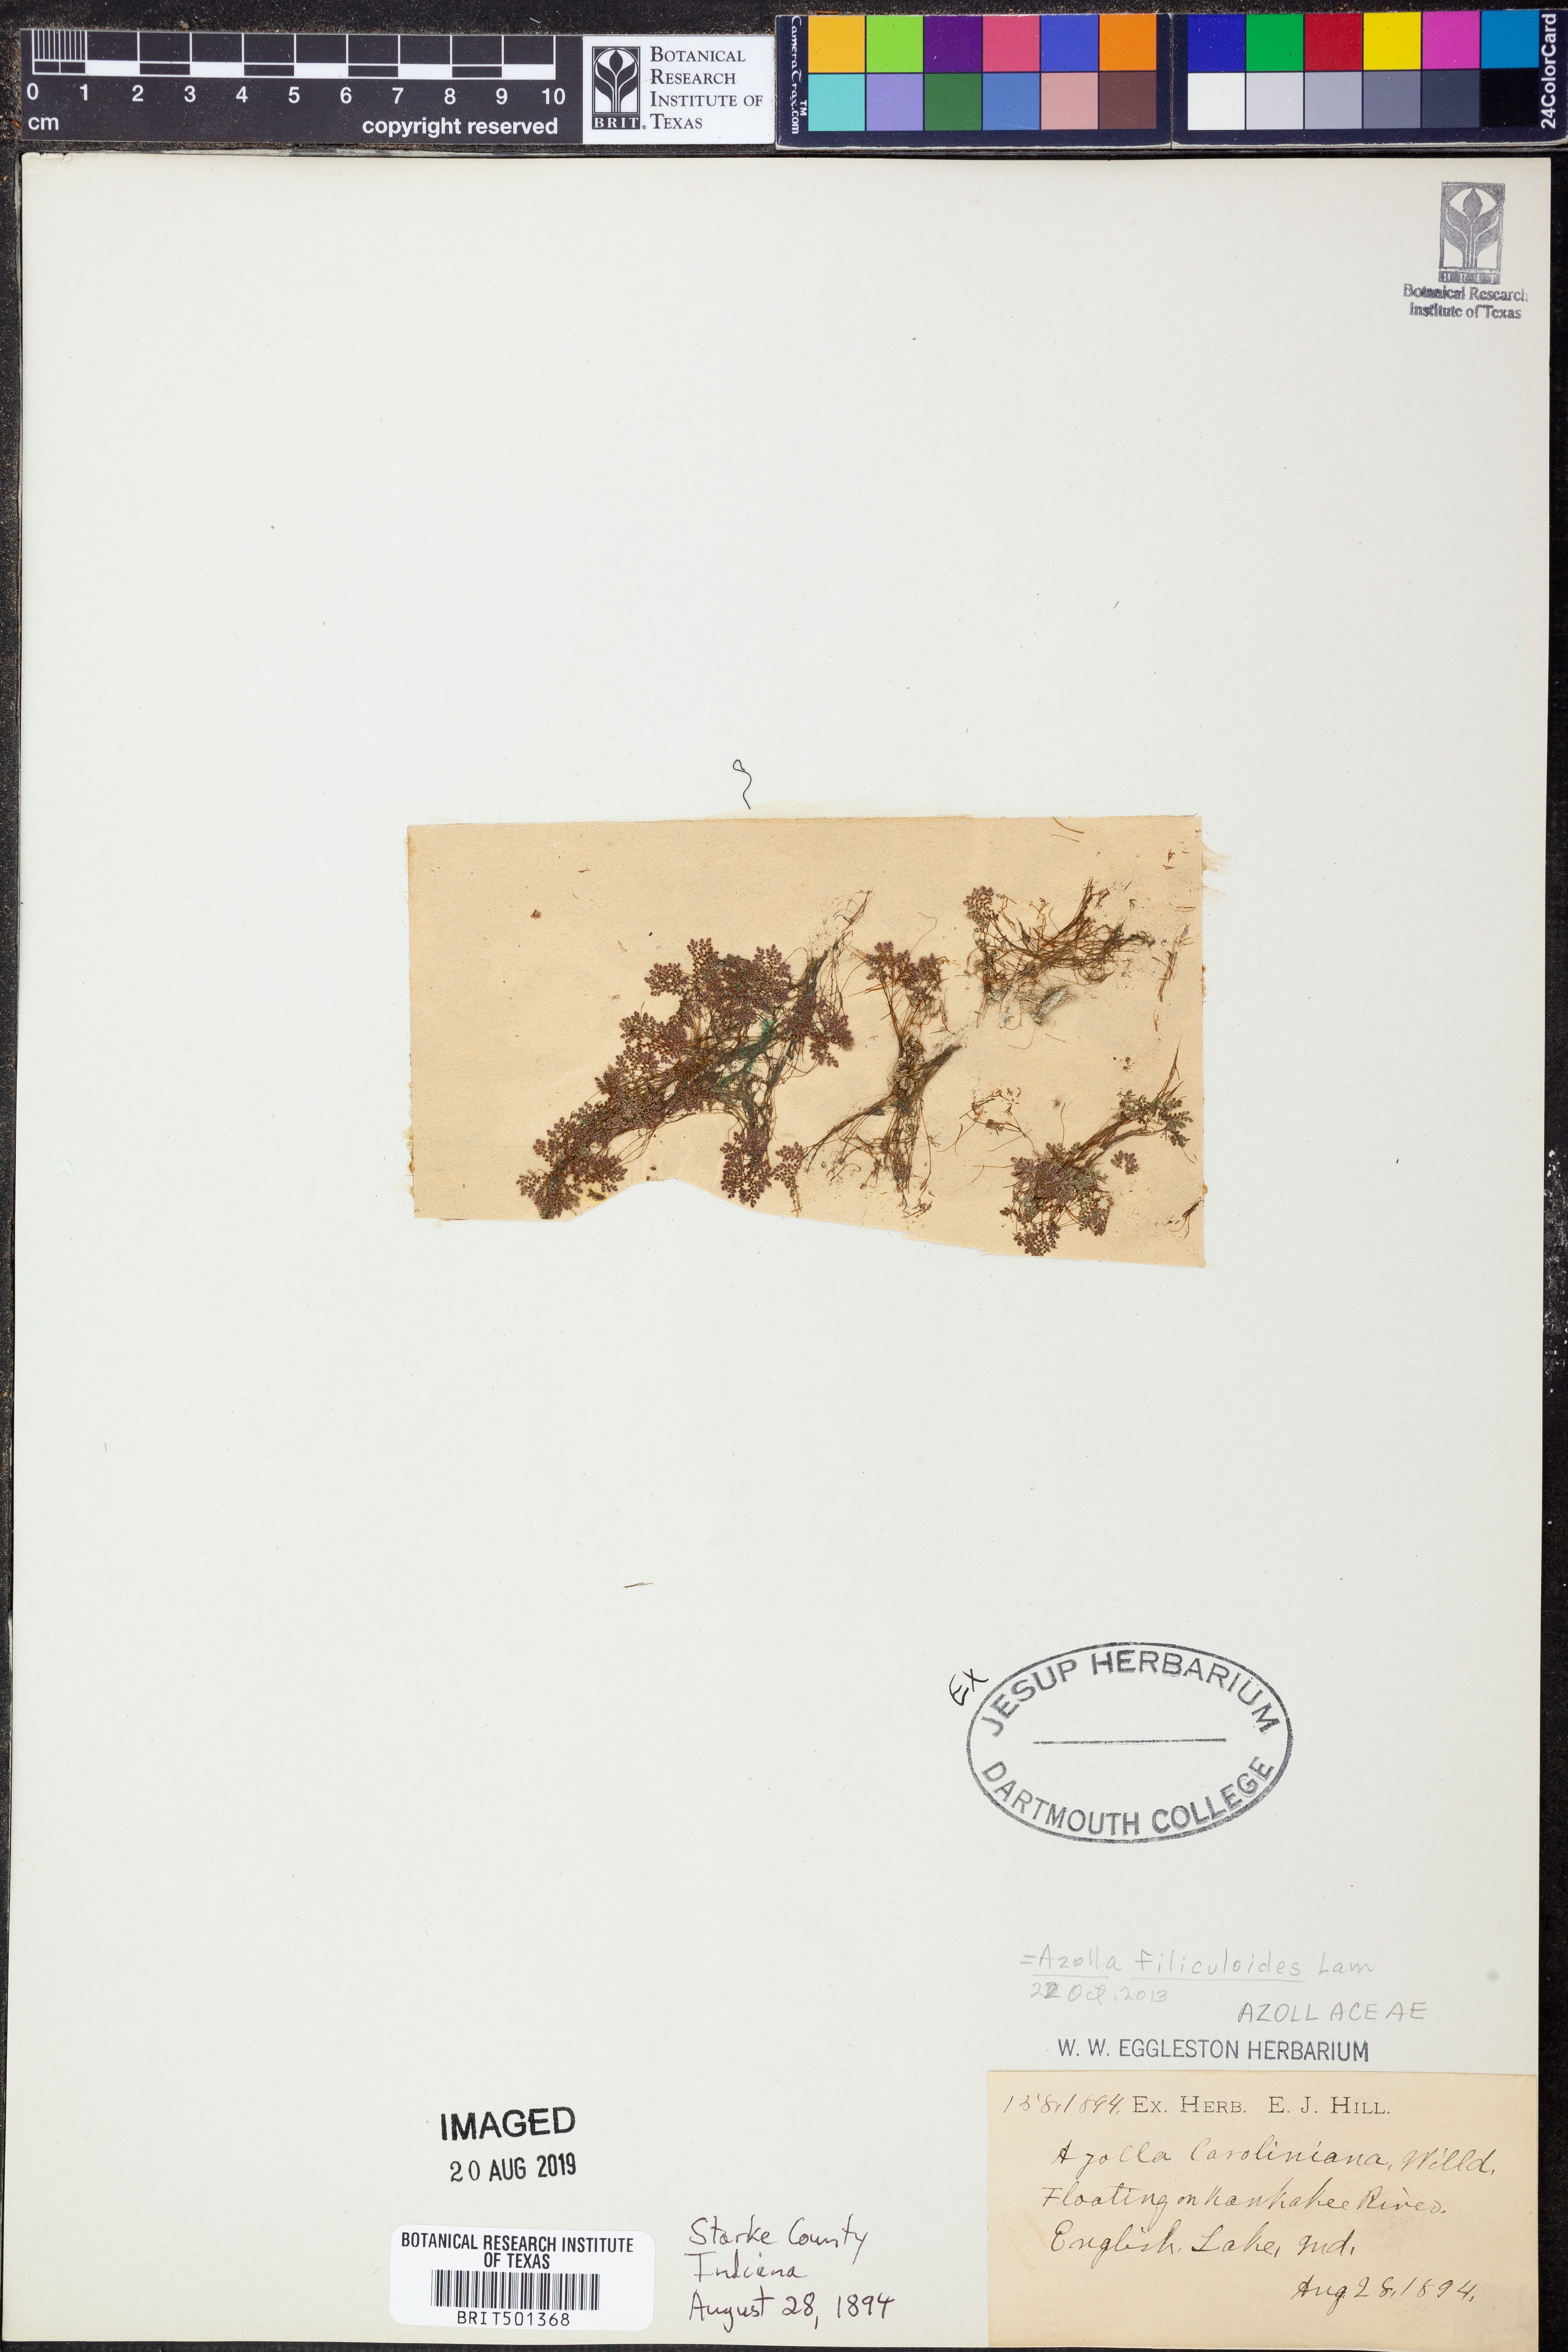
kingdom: Plantae
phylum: Tracheophyta
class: Polypodiopsida
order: Salviniales
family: Salviniaceae
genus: Azolla
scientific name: Azolla filiculoides
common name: Water fern
